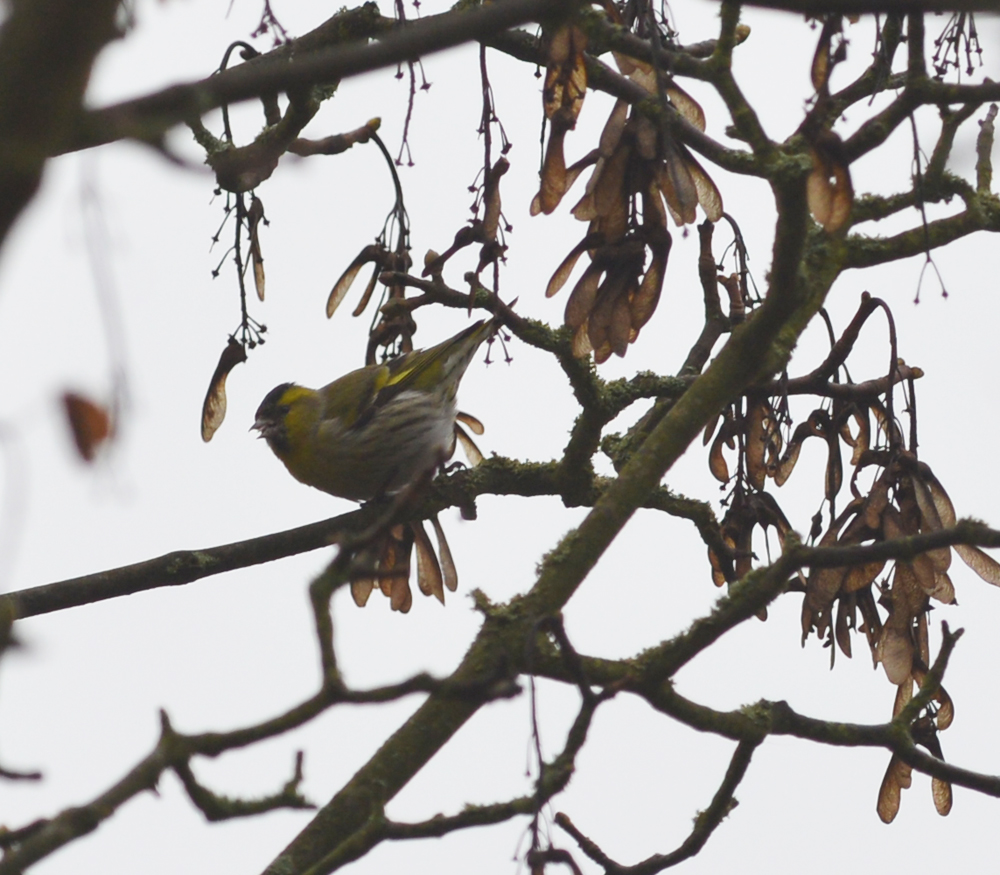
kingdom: Animalia
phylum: Chordata
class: Aves
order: Passeriformes
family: Fringillidae
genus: Spinus
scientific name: Spinus spinus
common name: Eurasian siskin
